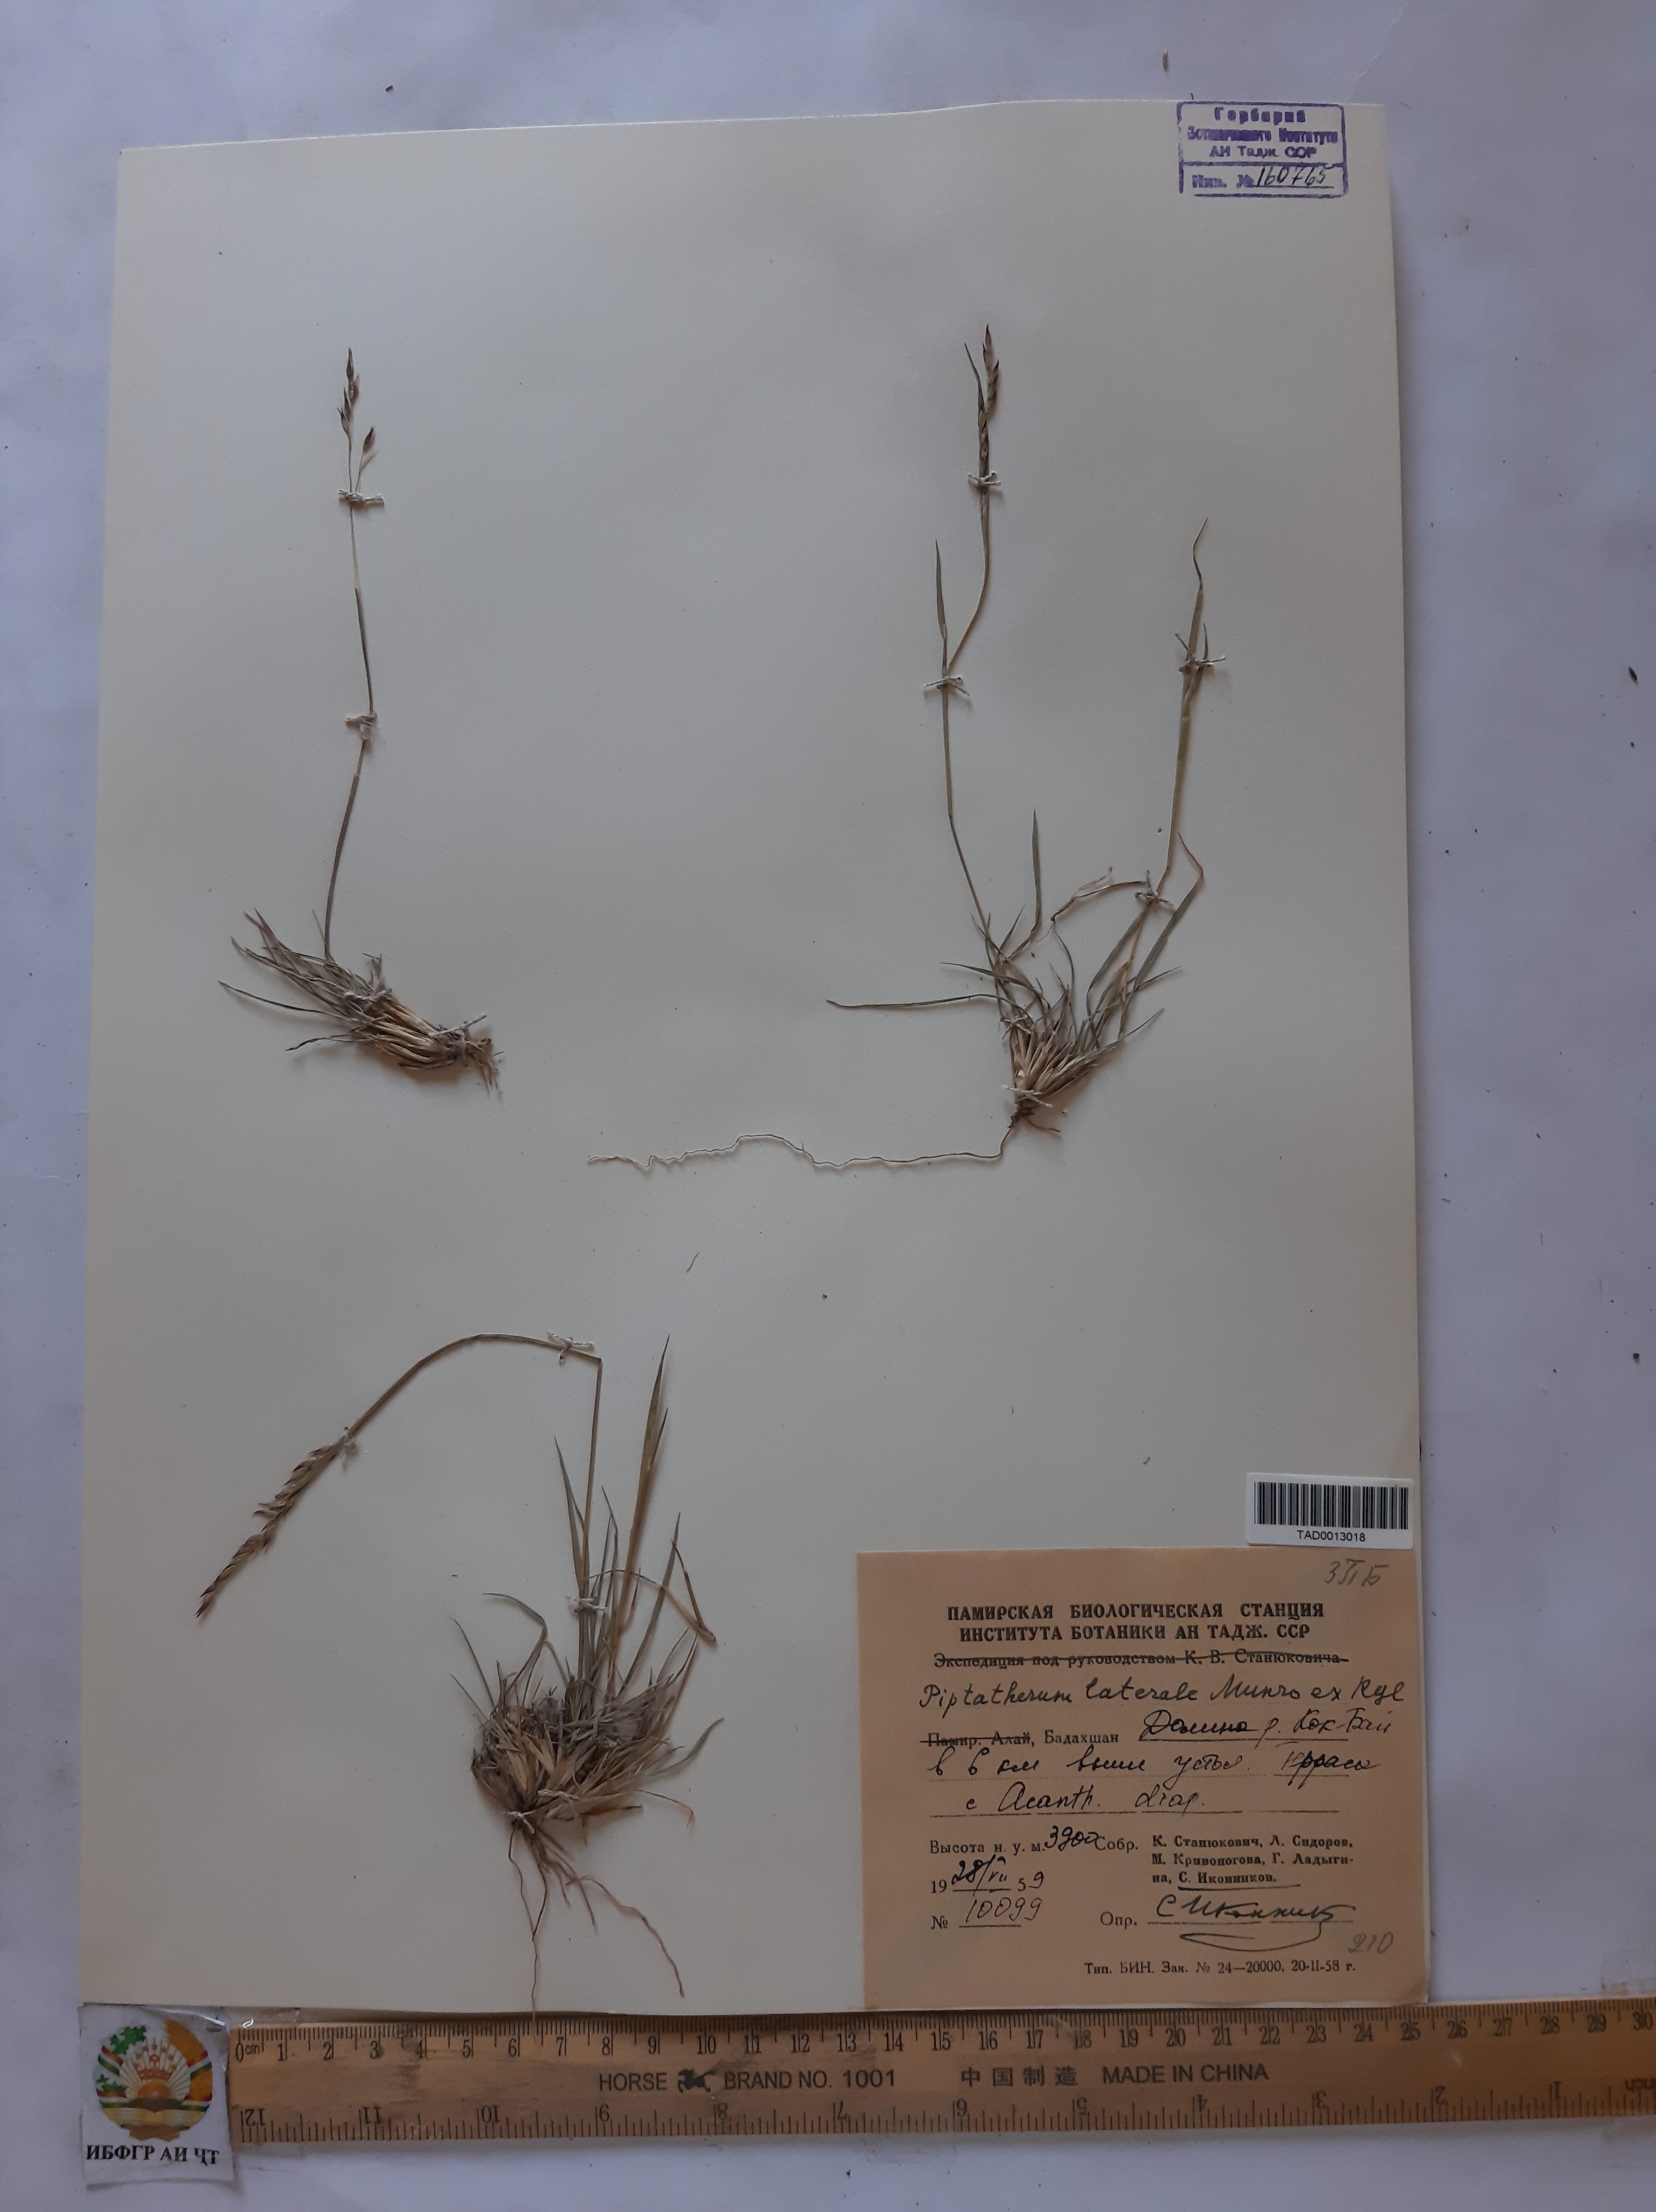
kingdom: Plantae
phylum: Tracheophyta
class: Liliopsida
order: Poales
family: Poaceae
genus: Piptatherum
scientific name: Piptatherum laterale
